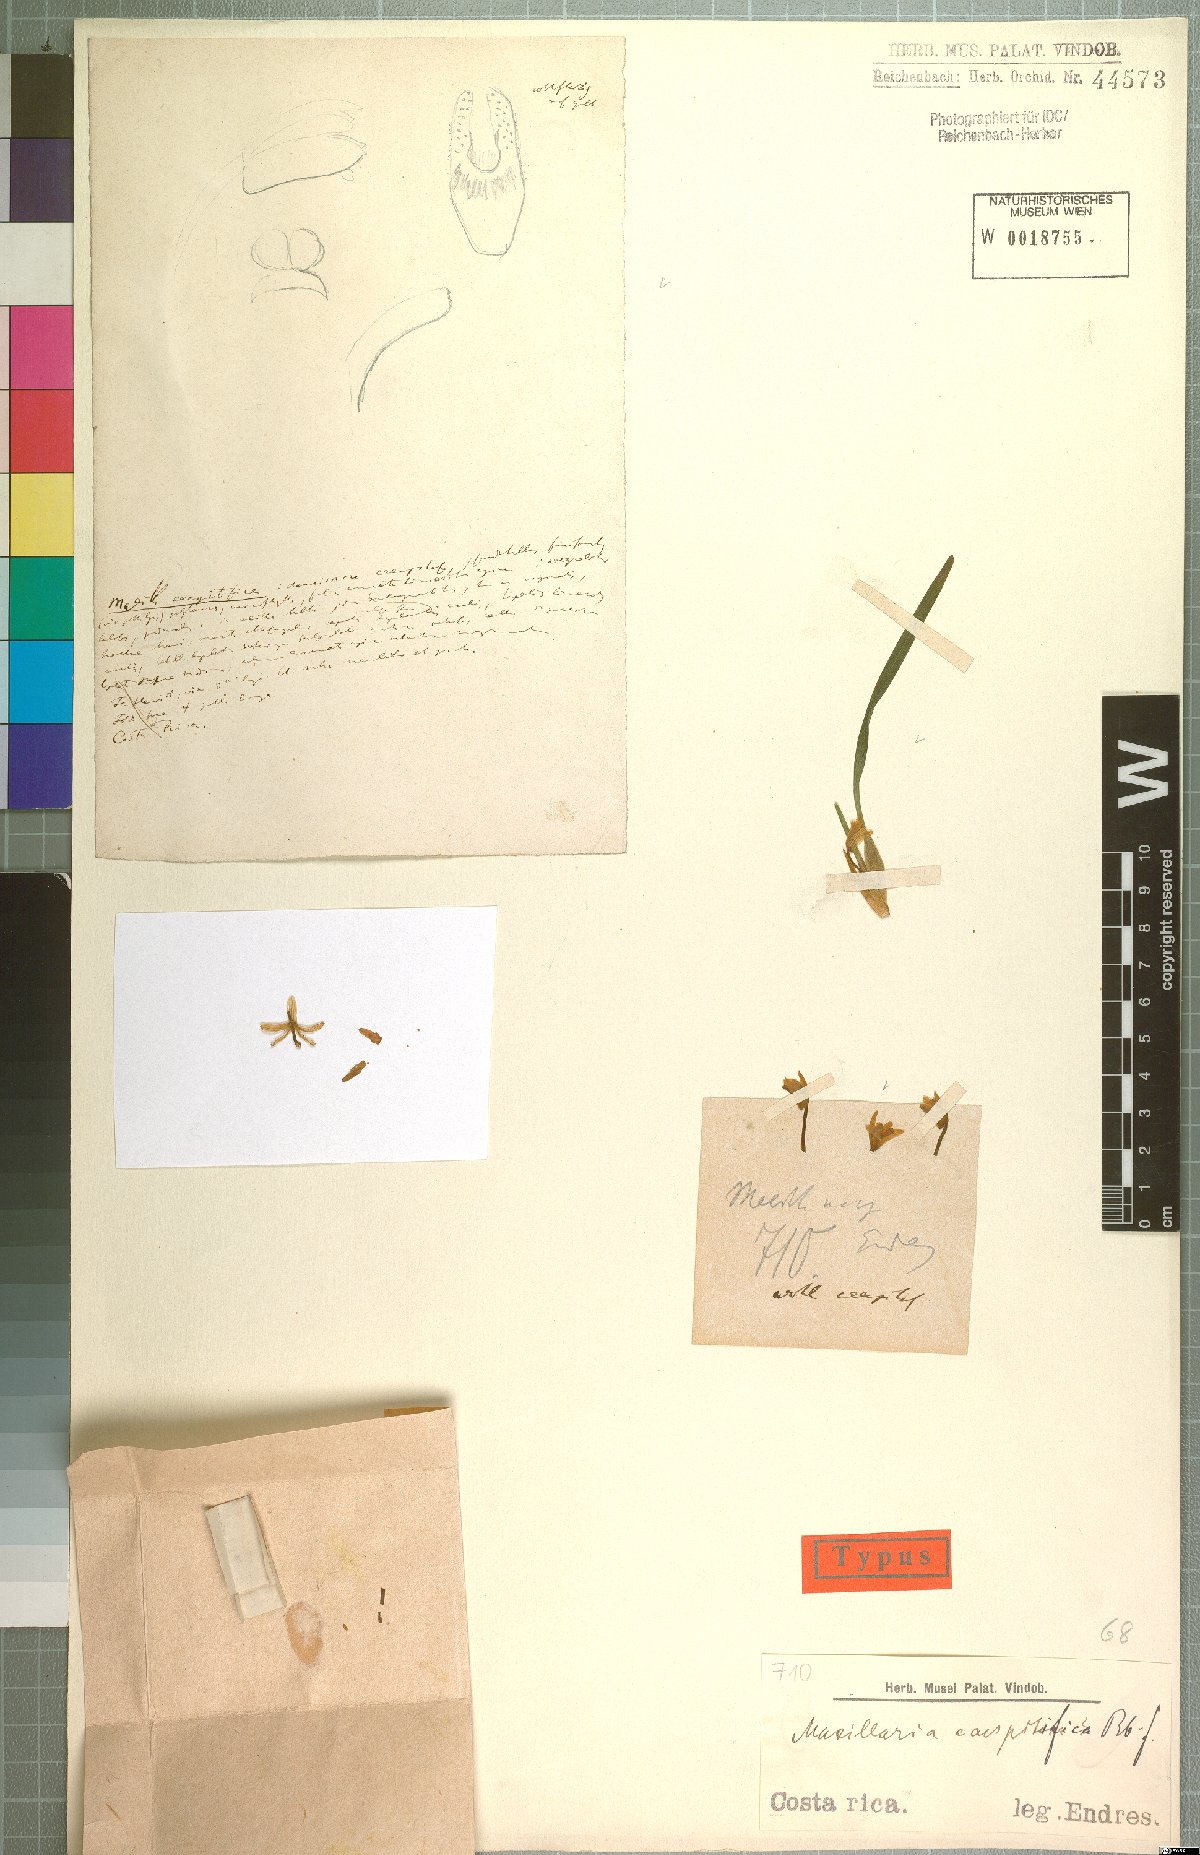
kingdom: Plantae
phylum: Tracheophyta
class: Liliopsida
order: Asparagales
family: Orchidaceae
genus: Maxillaria
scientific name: Maxillaria caespitifica
